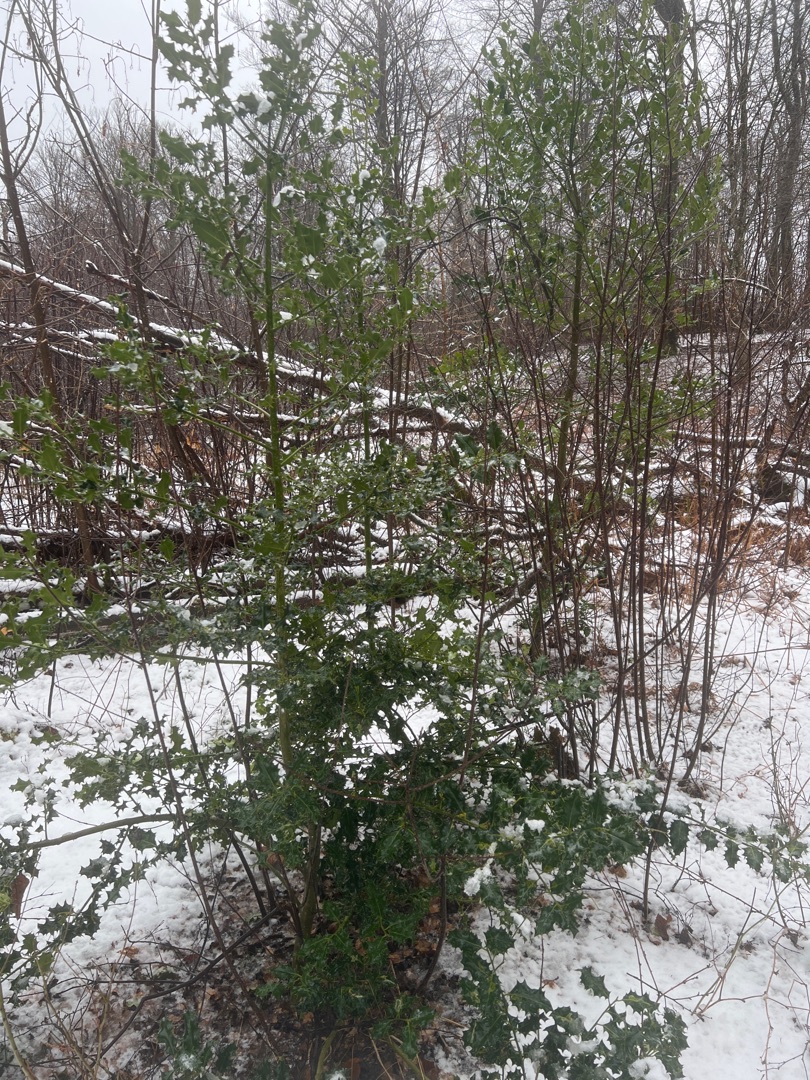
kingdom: Plantae
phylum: Tracheophyta
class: Magnoliopsida
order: Aquifoliales
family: Aquifoliaceae
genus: Ilex
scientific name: Ilex aquifolium
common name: Kristtorn
